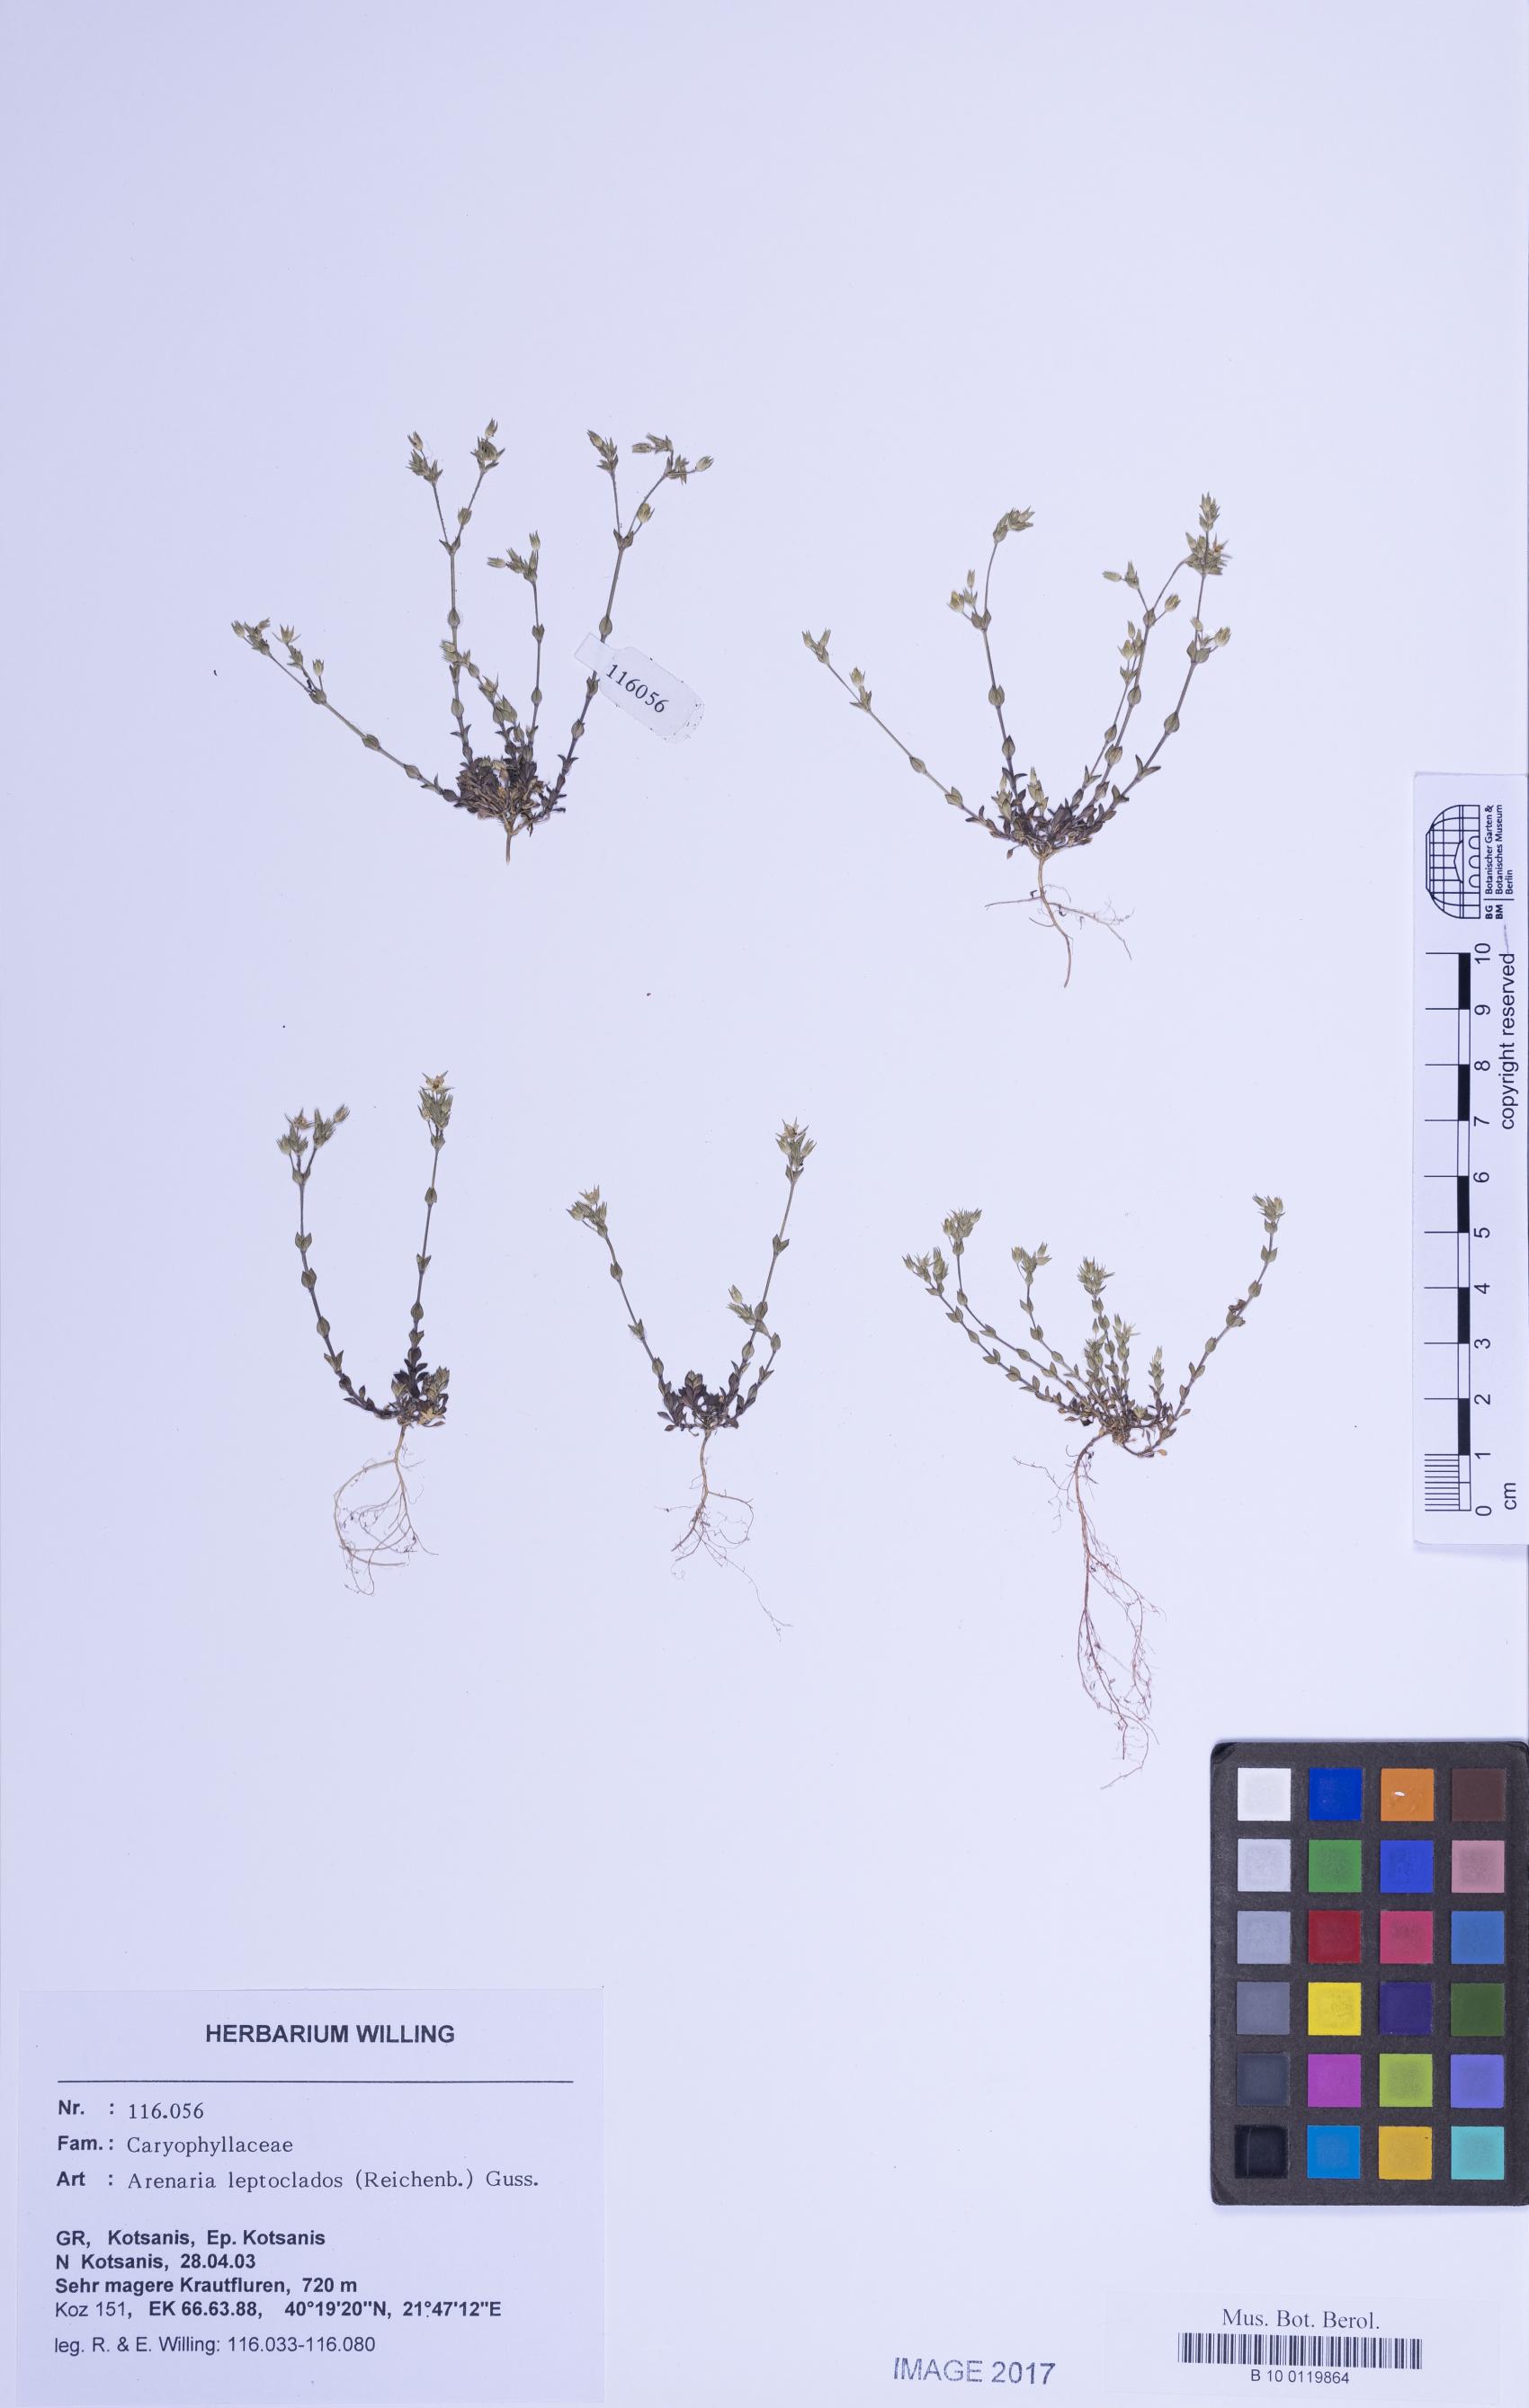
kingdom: Plantae
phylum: Tracheophyta
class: Magnoliopsida
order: Caryophyllales
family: Caryophyllaceae
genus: Arenaria
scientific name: Arenaria leptoclados
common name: Thyme-leaved sandwort
